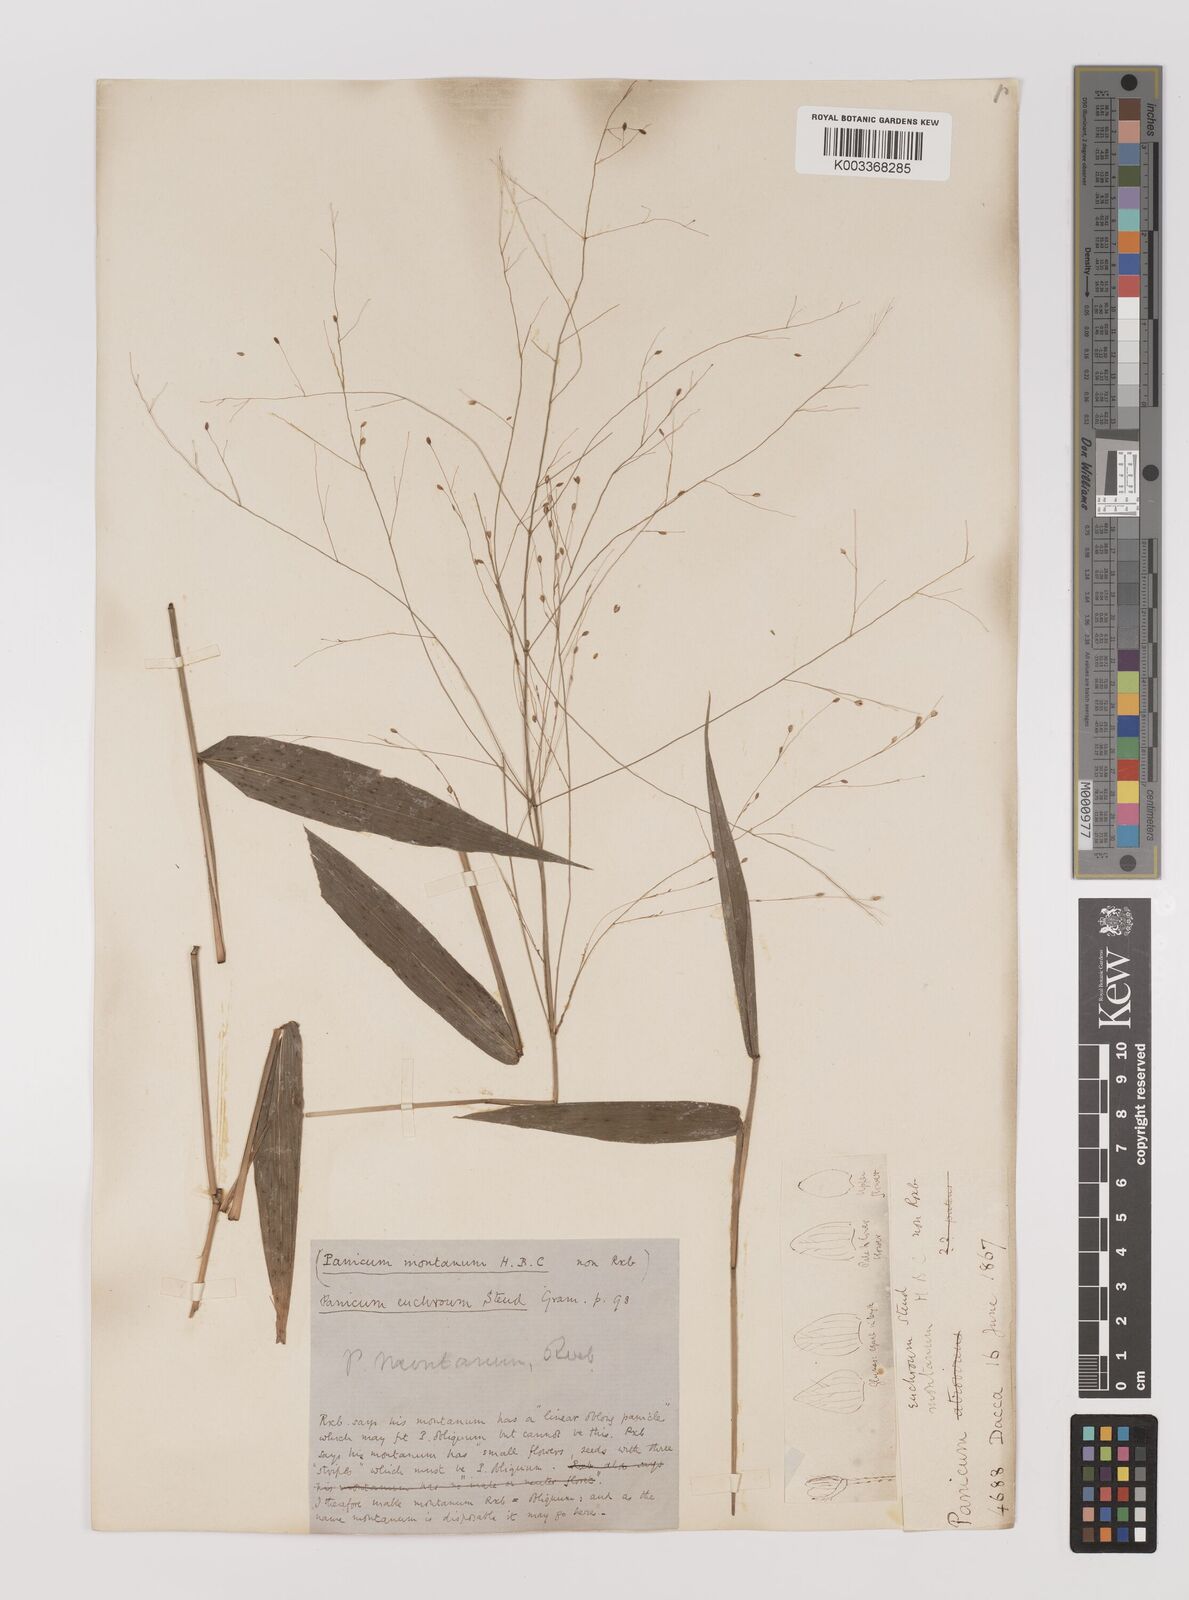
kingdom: Plantae
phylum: Tracheophyta
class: Liliopsida
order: Poales
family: Poaceae
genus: Panicum
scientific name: Panicum notatum
